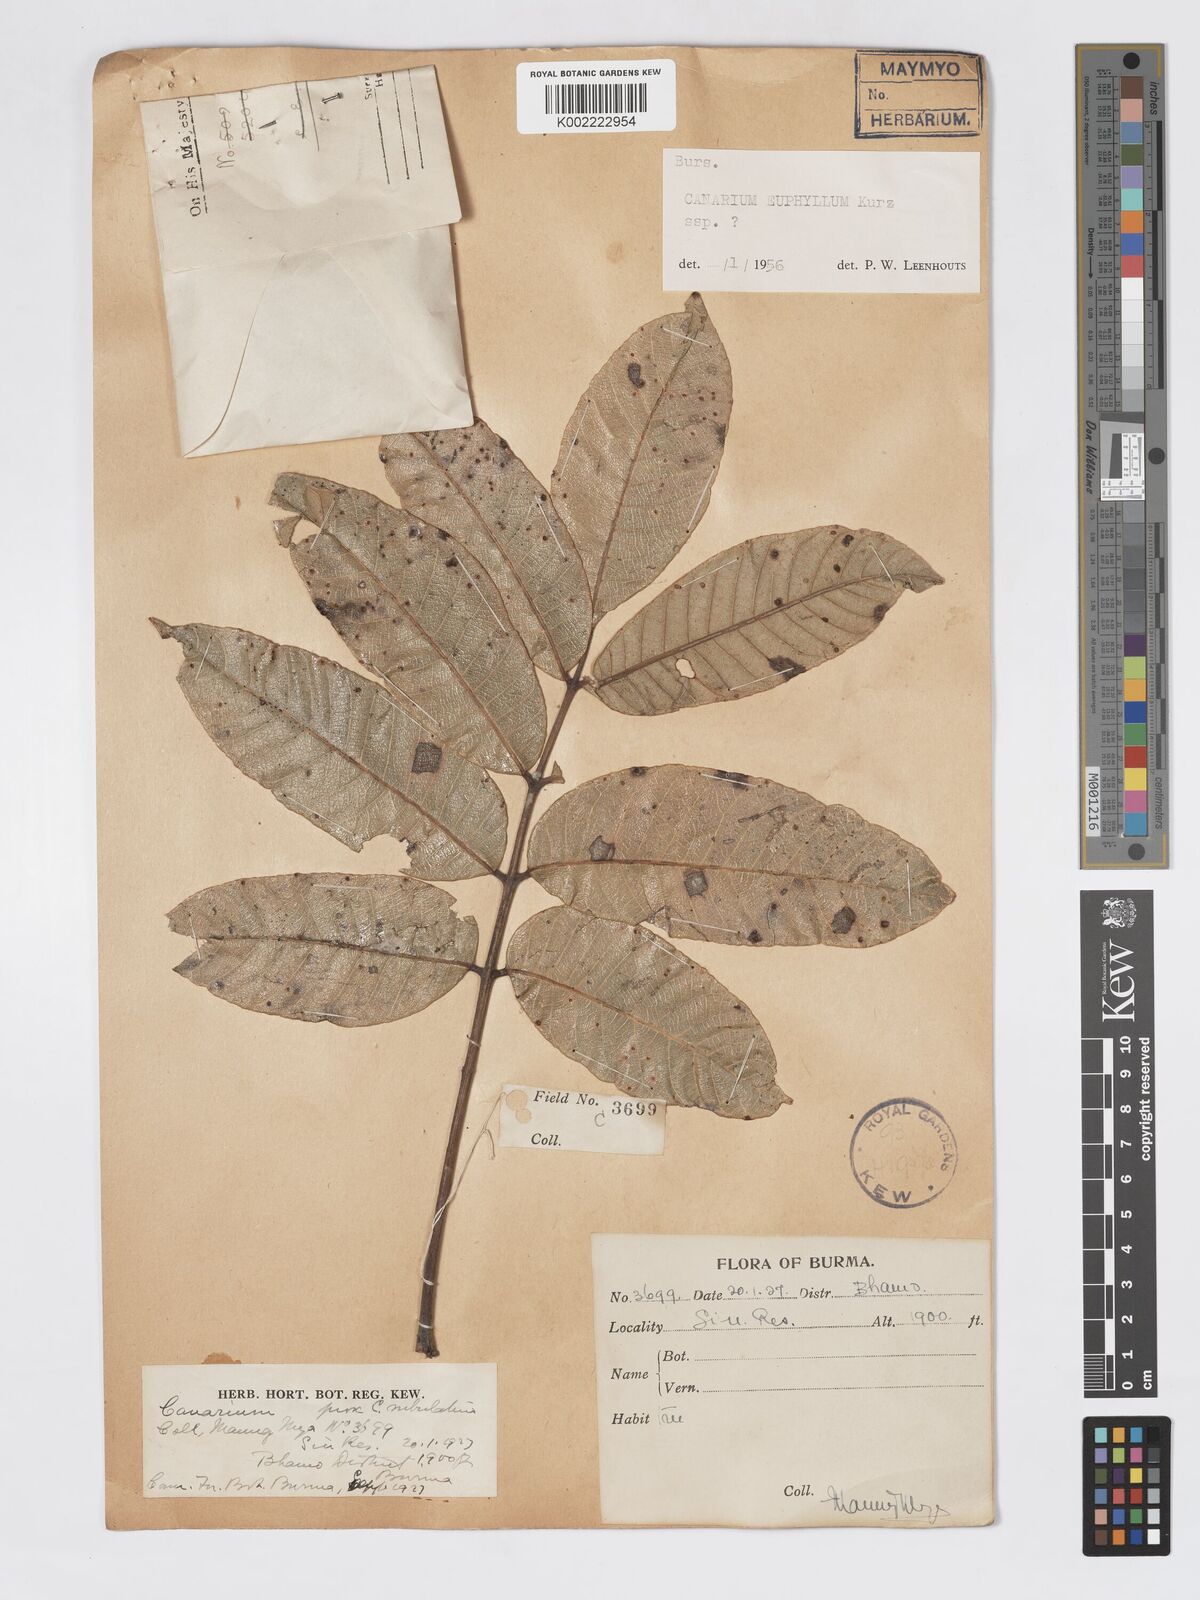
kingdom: Plantae
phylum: Tracheophyta
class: Magnoliopsida
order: Sapindales
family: Burseraceae
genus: Canarium
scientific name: Canarium euphyllum
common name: White dhup
